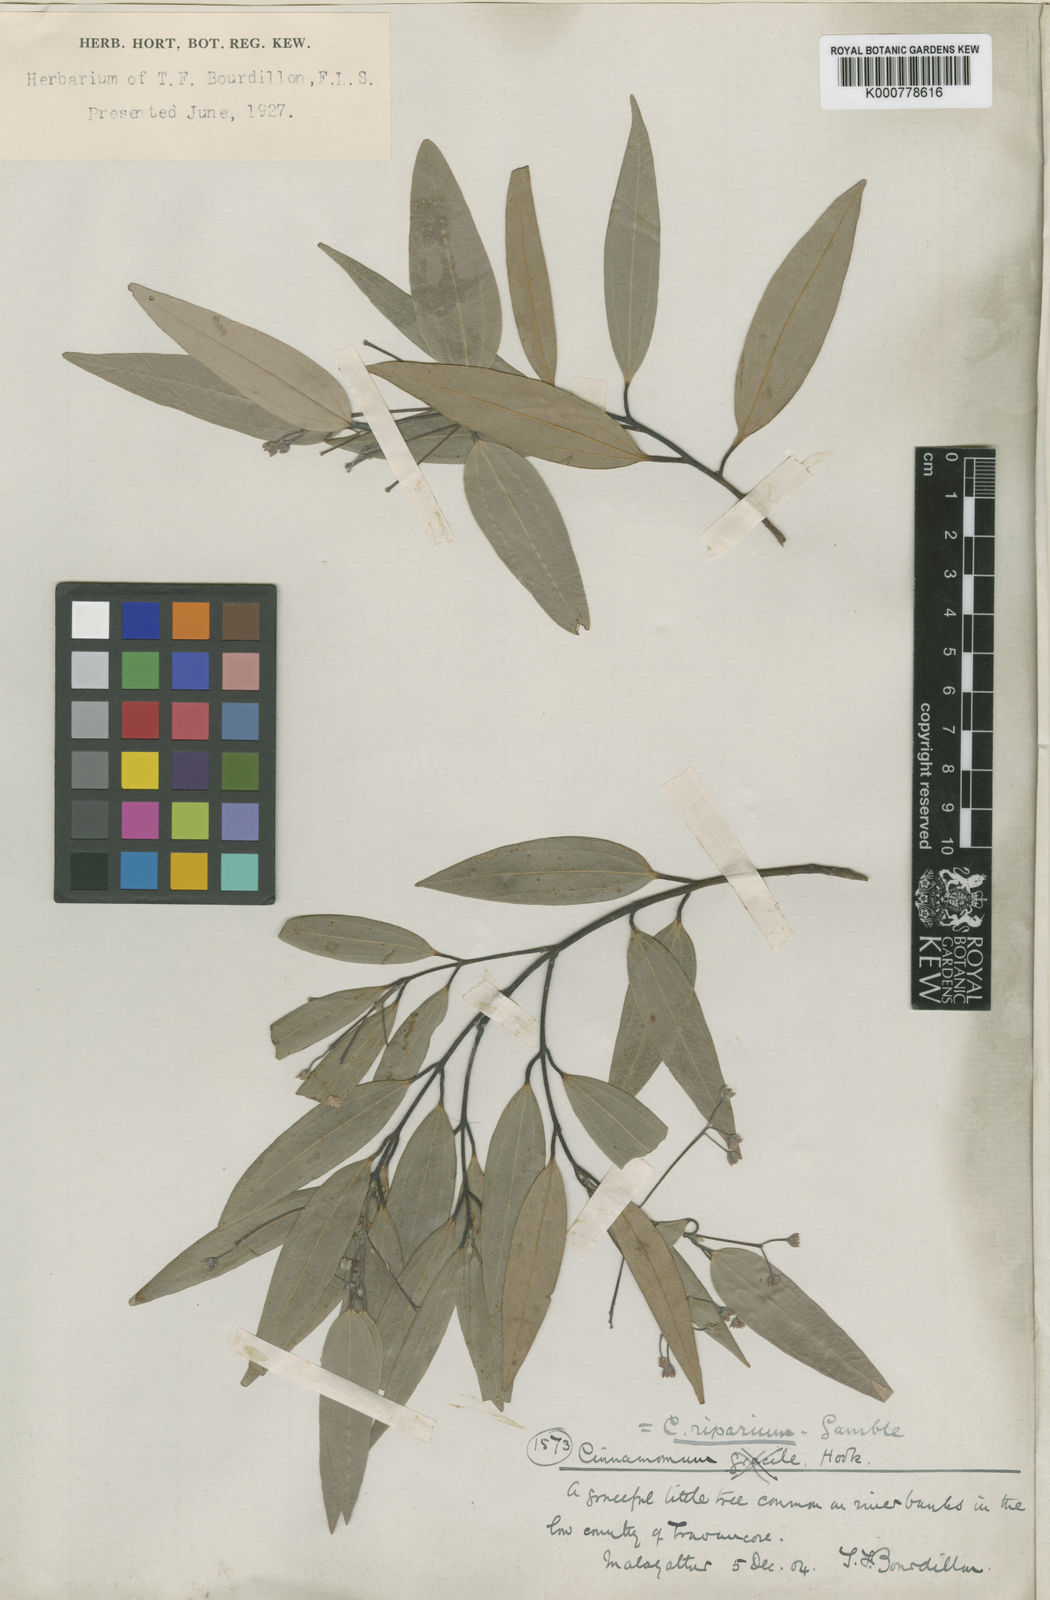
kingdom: Plantae
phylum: Tracheophyta
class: Magnoliopsida
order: Laurales
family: Lauraceae
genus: Cinnamomum
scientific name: Cinnamomum riparium
